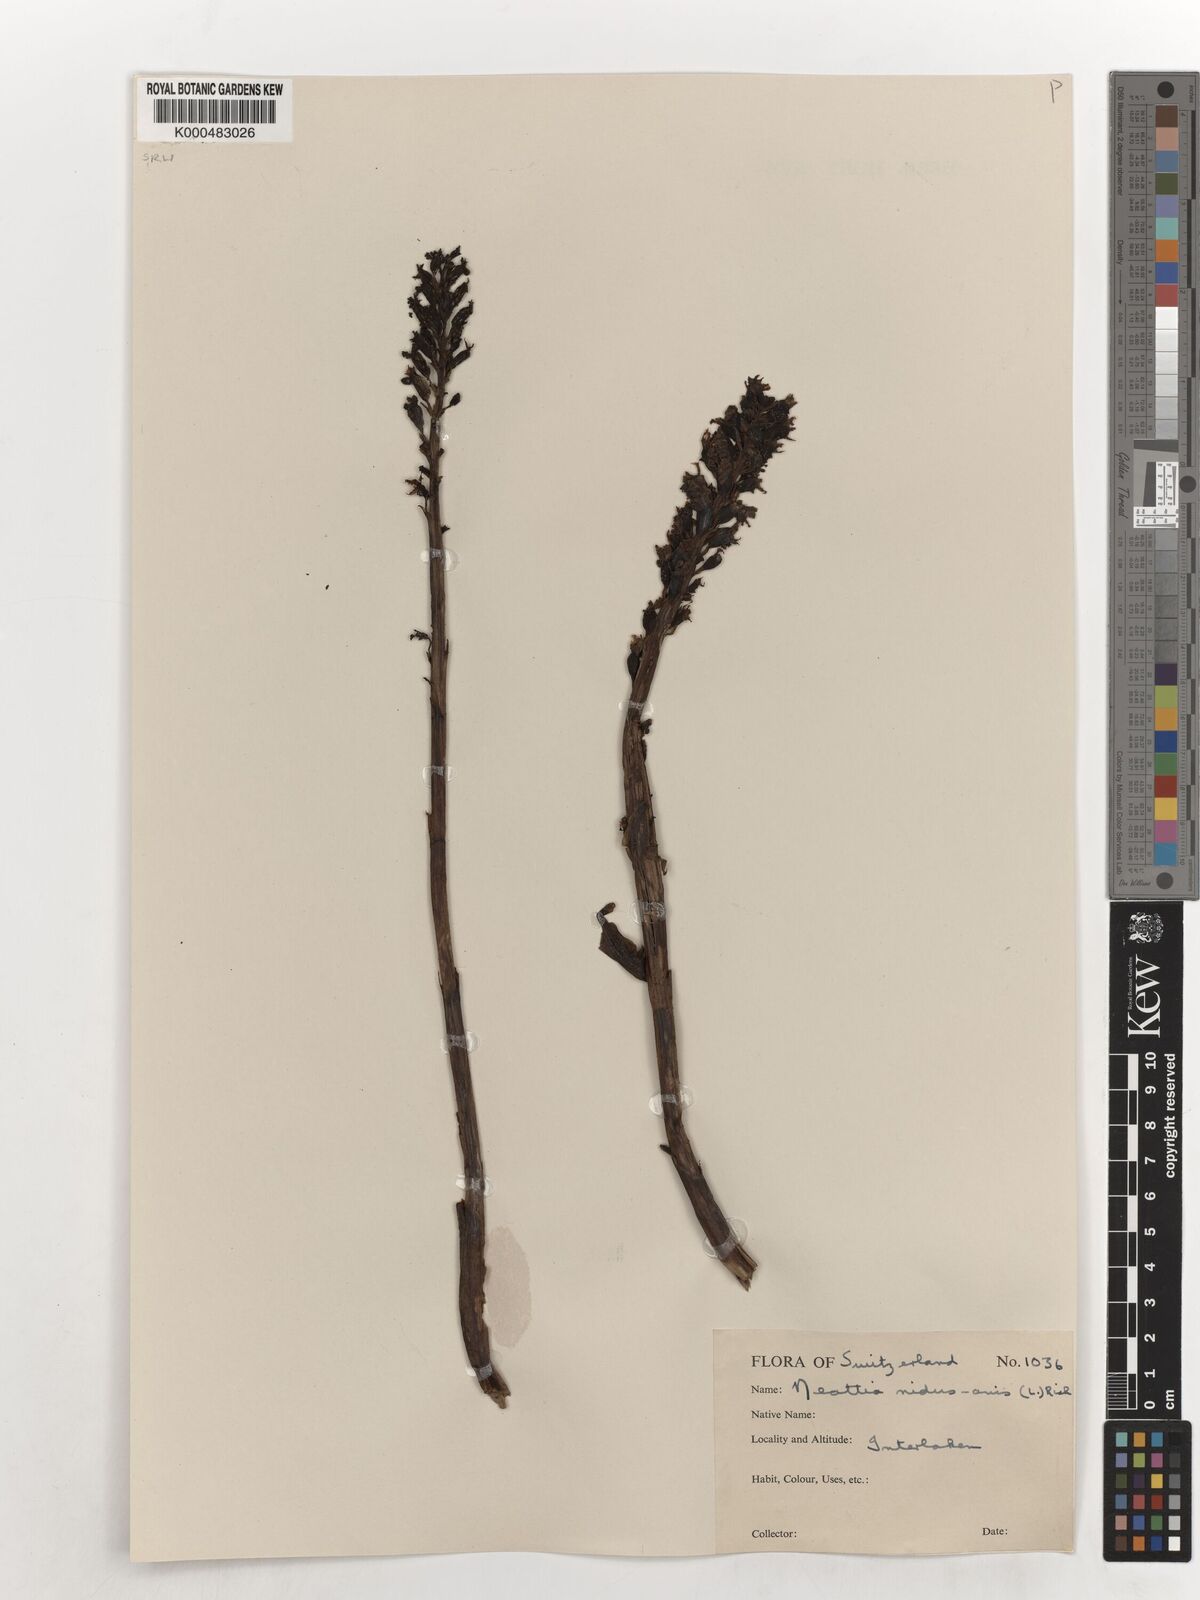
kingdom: Plantae
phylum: Tracheophyta
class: Liliopsida
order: Asparagales
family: Orchidaceae
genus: Neottia
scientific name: Neottia nidus-avis
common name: Bird's-nest orchid
